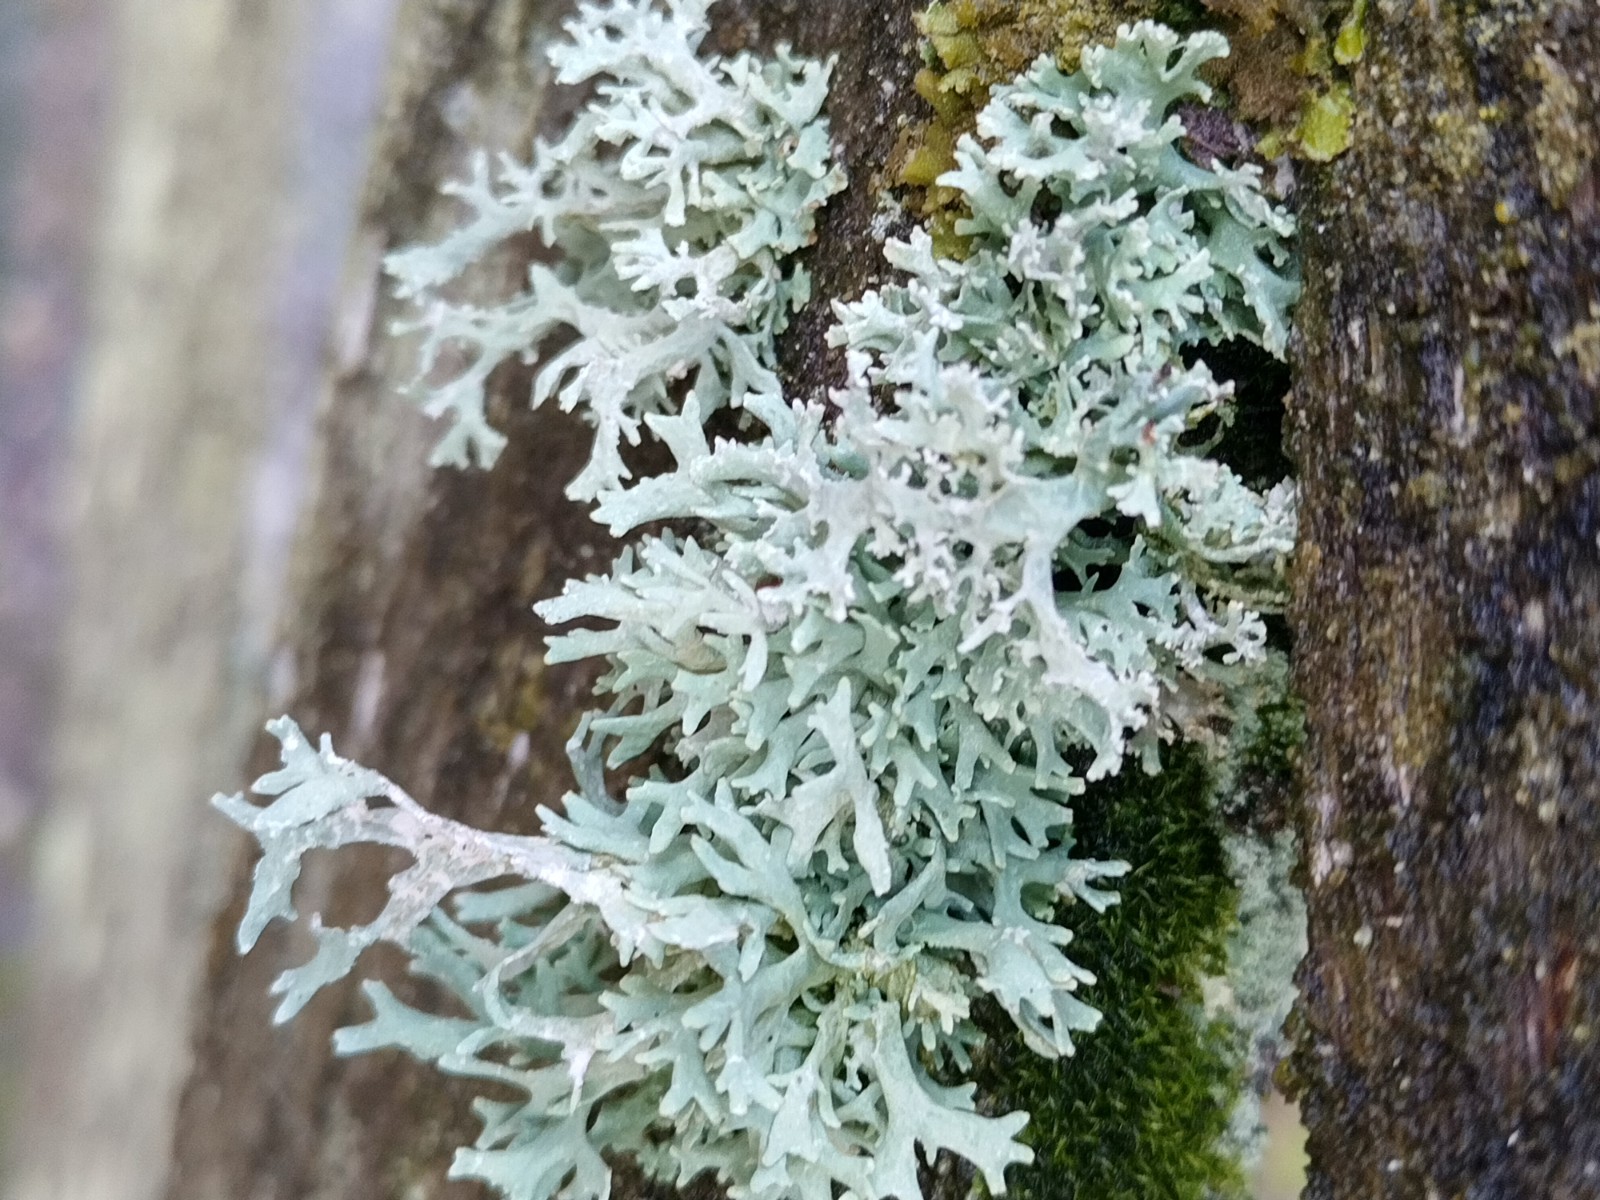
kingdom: Fungi
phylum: Ascomycota
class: Lecanoromycetes
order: Lecanorales
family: Parmeliaceae
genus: Evernia
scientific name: Evernia prunastri
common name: almindelig slåenlav
